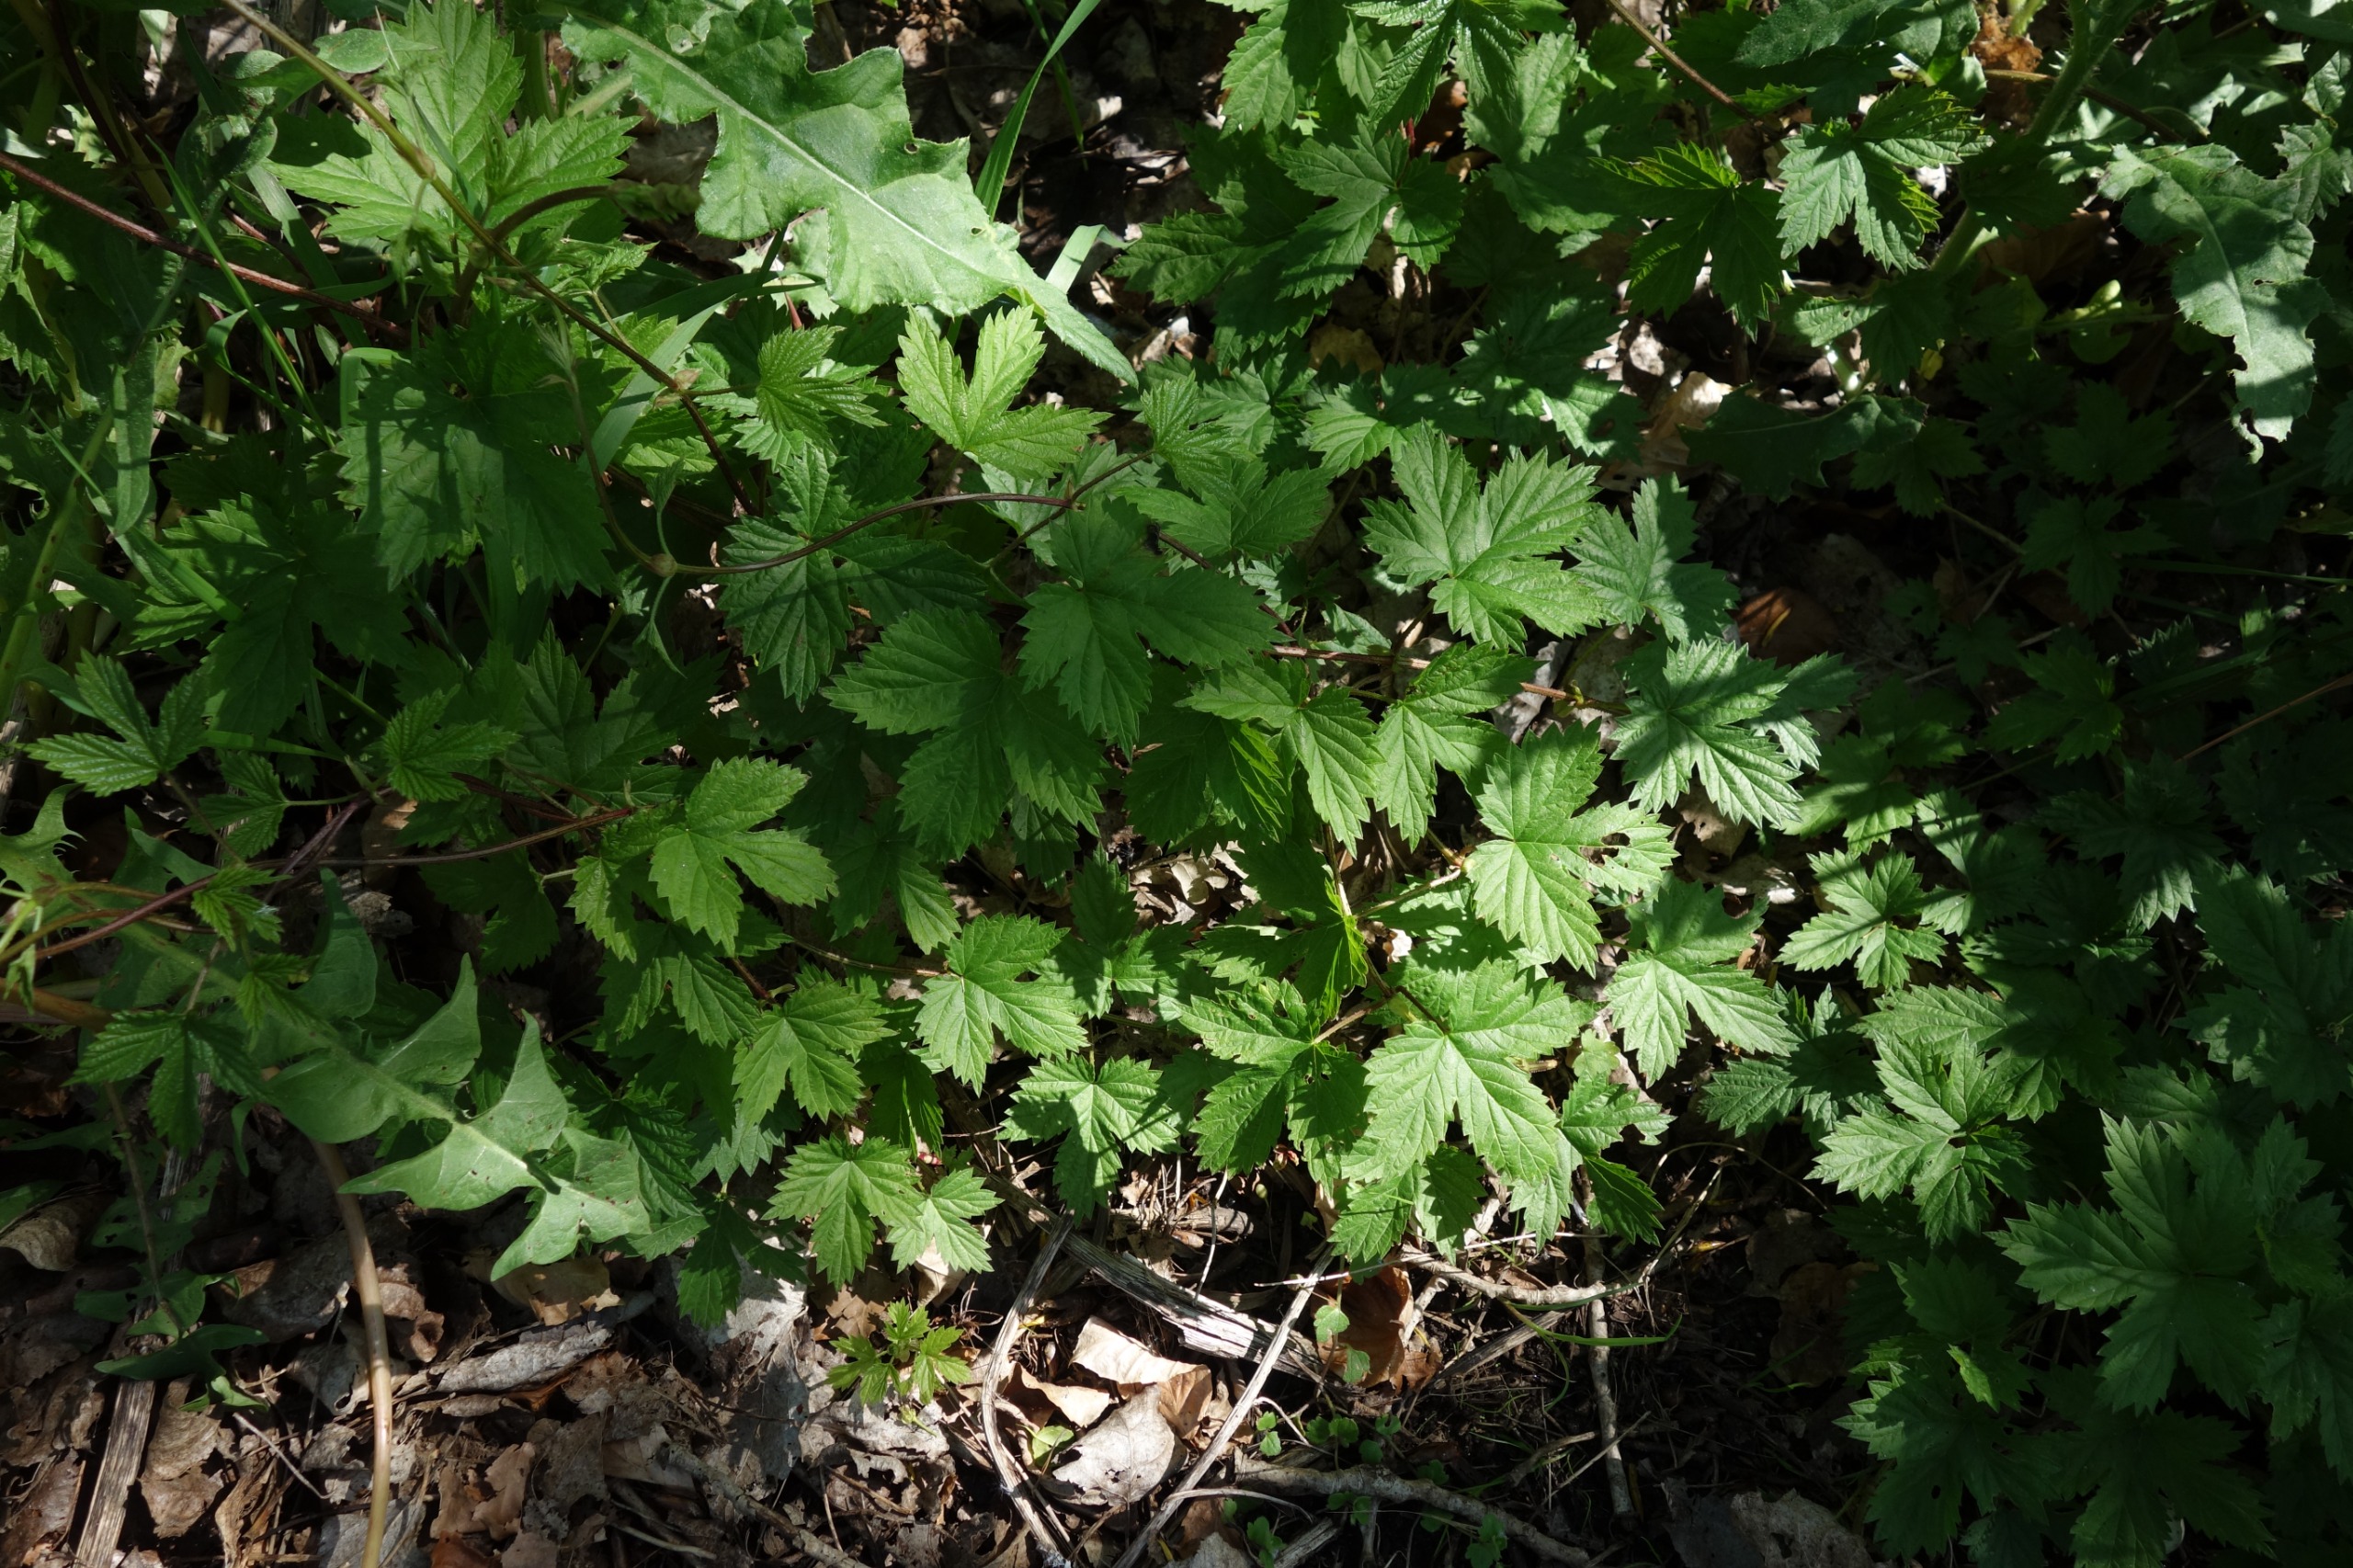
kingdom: Plantae
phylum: Tracheophyta
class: Magnoliopsida
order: Rosales
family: Cannabaceae
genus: Humulus
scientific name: Humulus lupulus
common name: Humle
